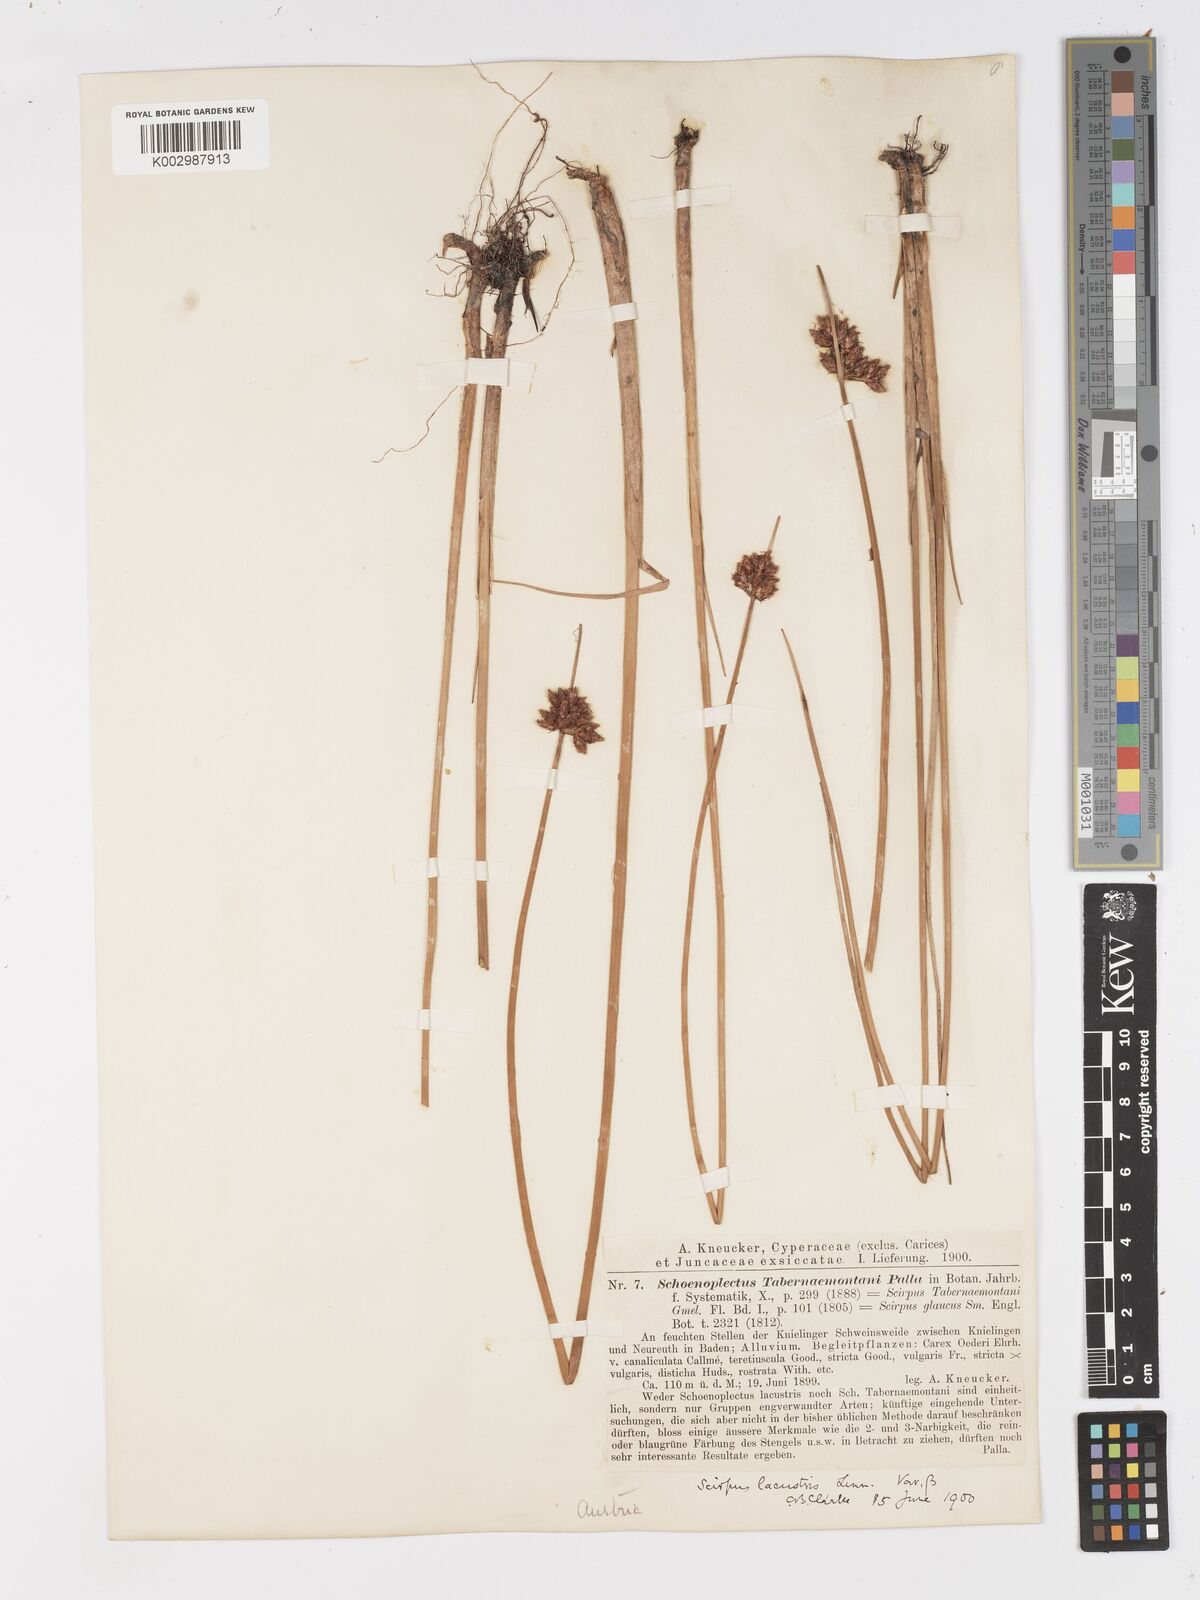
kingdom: Plantae
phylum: Tracheophyta
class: Liliopsida
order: Poales
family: Cyperaceae
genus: Schoenoplectus
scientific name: Schoenoplectus tabernaemontani
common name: Grey club-rush
